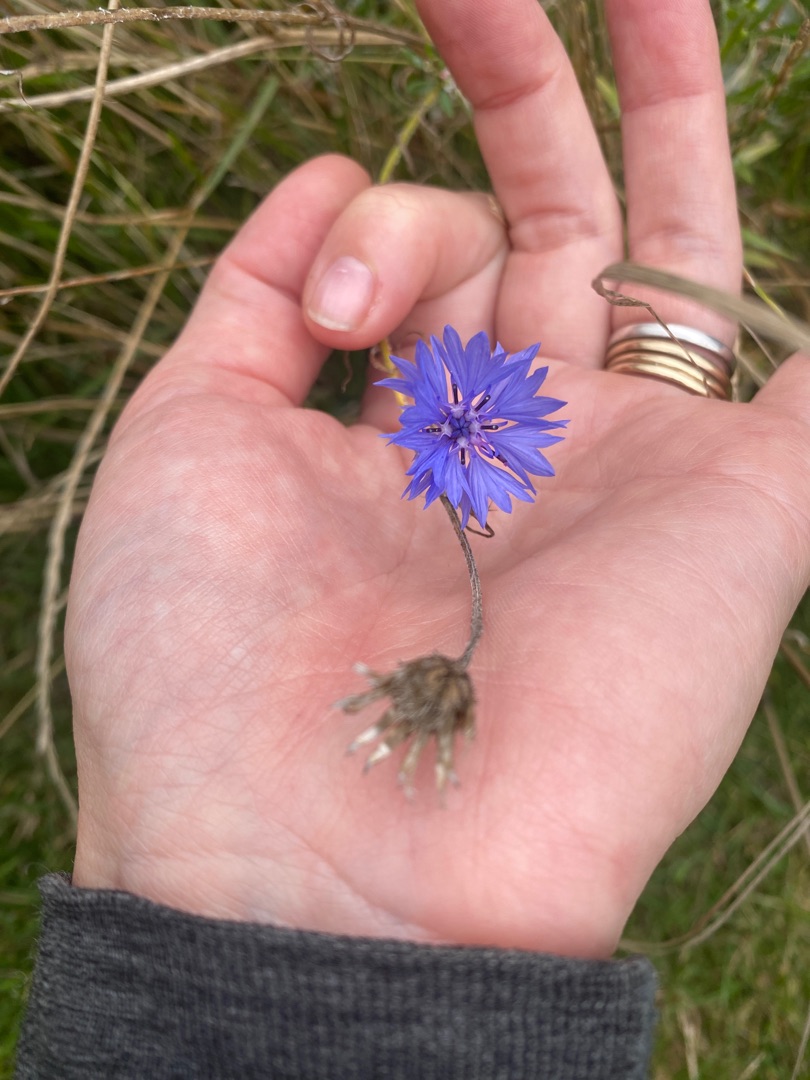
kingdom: Plantae
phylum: Tracheophyta
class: Magnoliopsida
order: Asterales
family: Asteraceae
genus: Centaurea
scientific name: Centaurea cyanus
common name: Kornblomst
